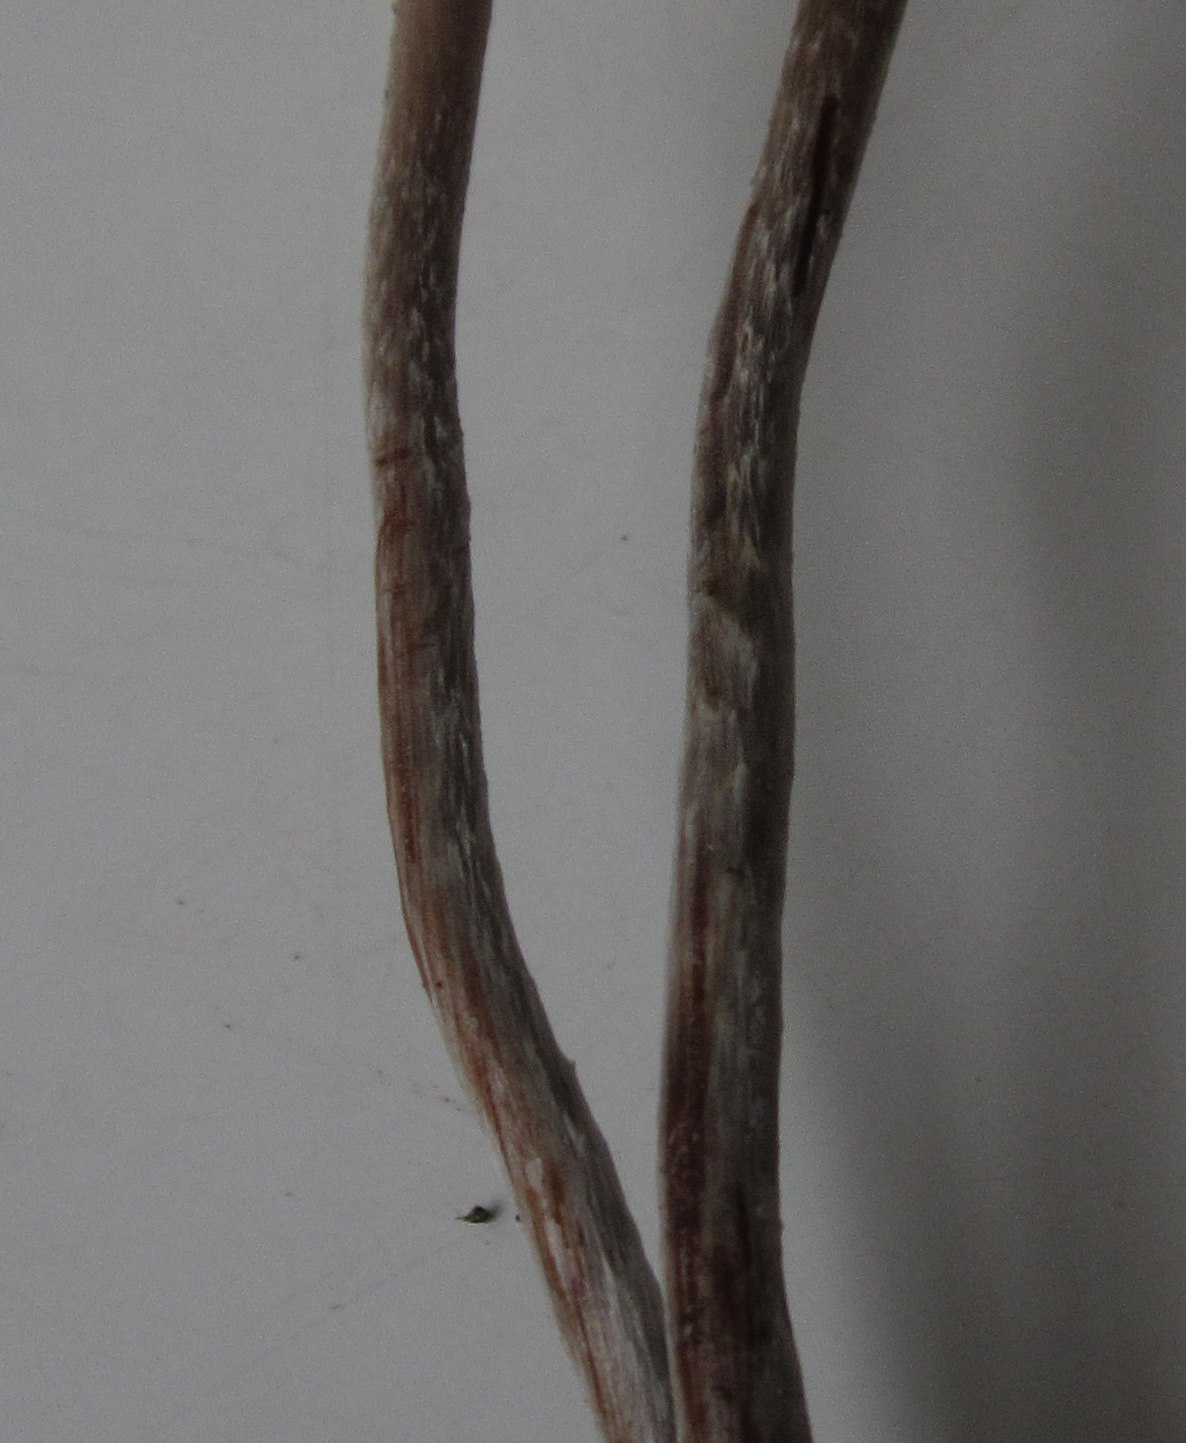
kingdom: Fungi
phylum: Basidiomycota
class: Agaricomycetes
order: Agaricales
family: Strophariaceae
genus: Hypholoma
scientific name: Hypholoma marginatum
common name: enlig svovlhat
